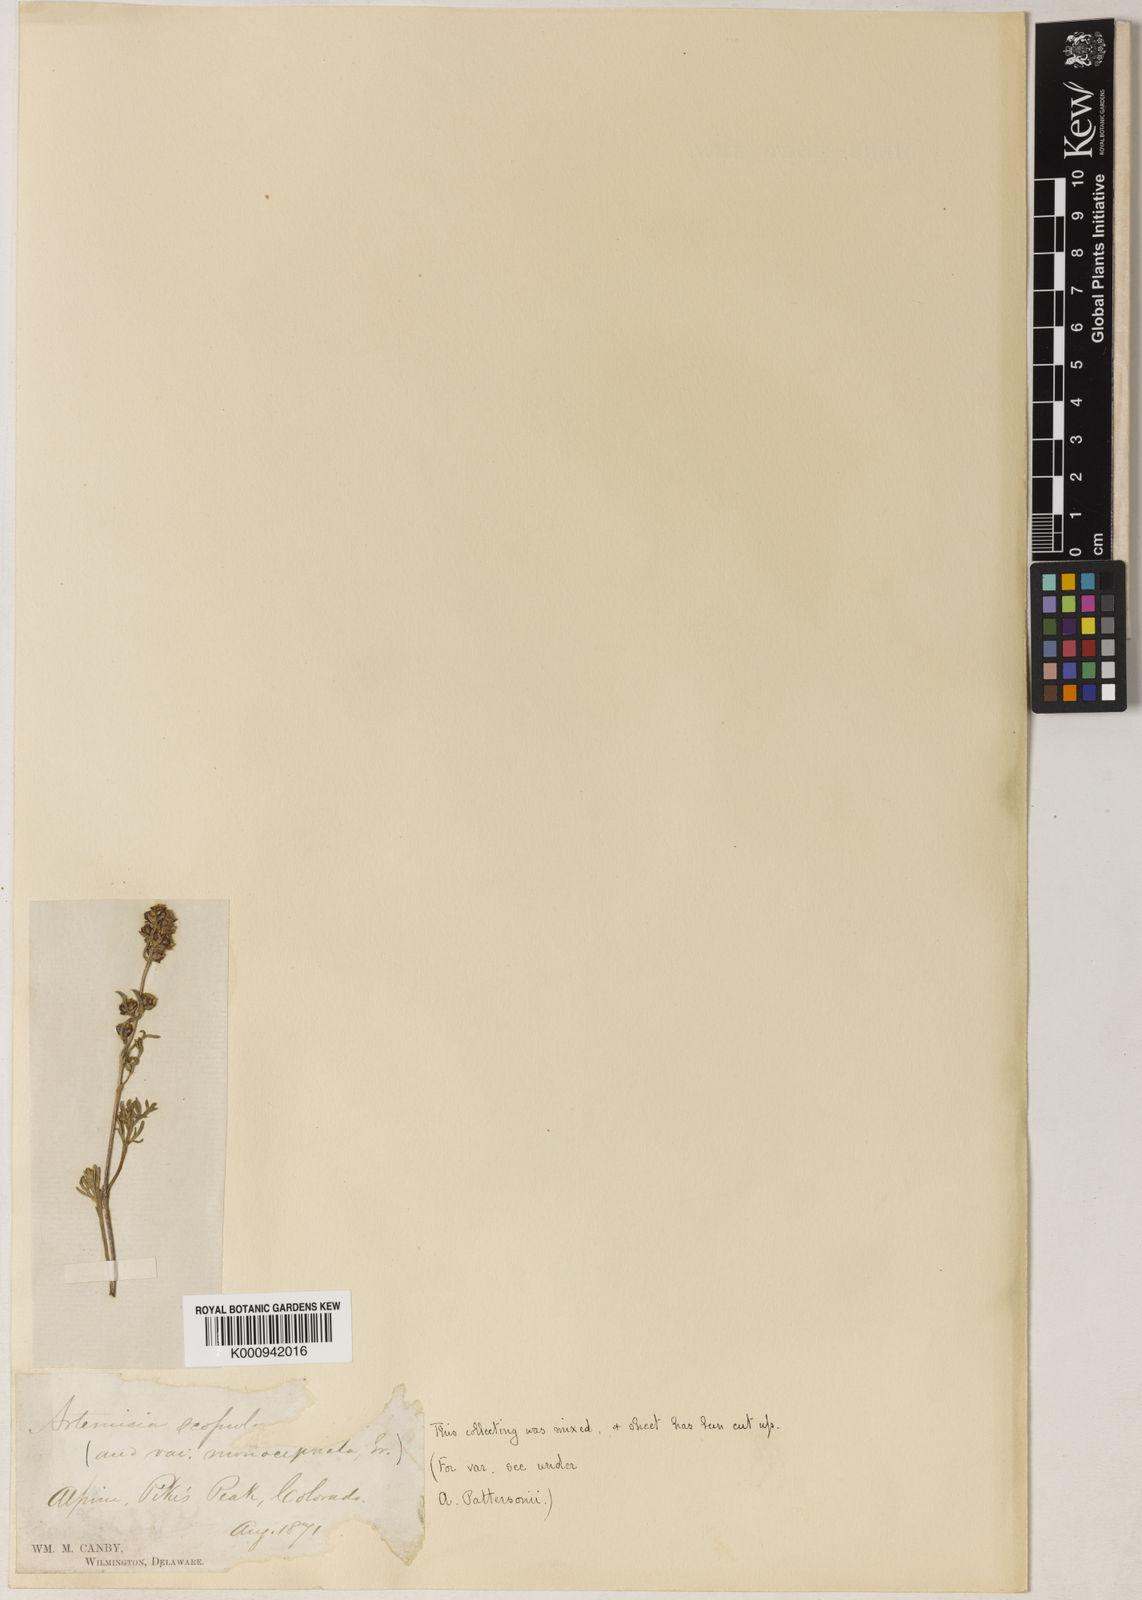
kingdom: Plantae
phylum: Tracheophyta
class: Magnoliopsida
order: Asterales
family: Asteraceae
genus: Artemisia
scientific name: Artemisia scopulorum
